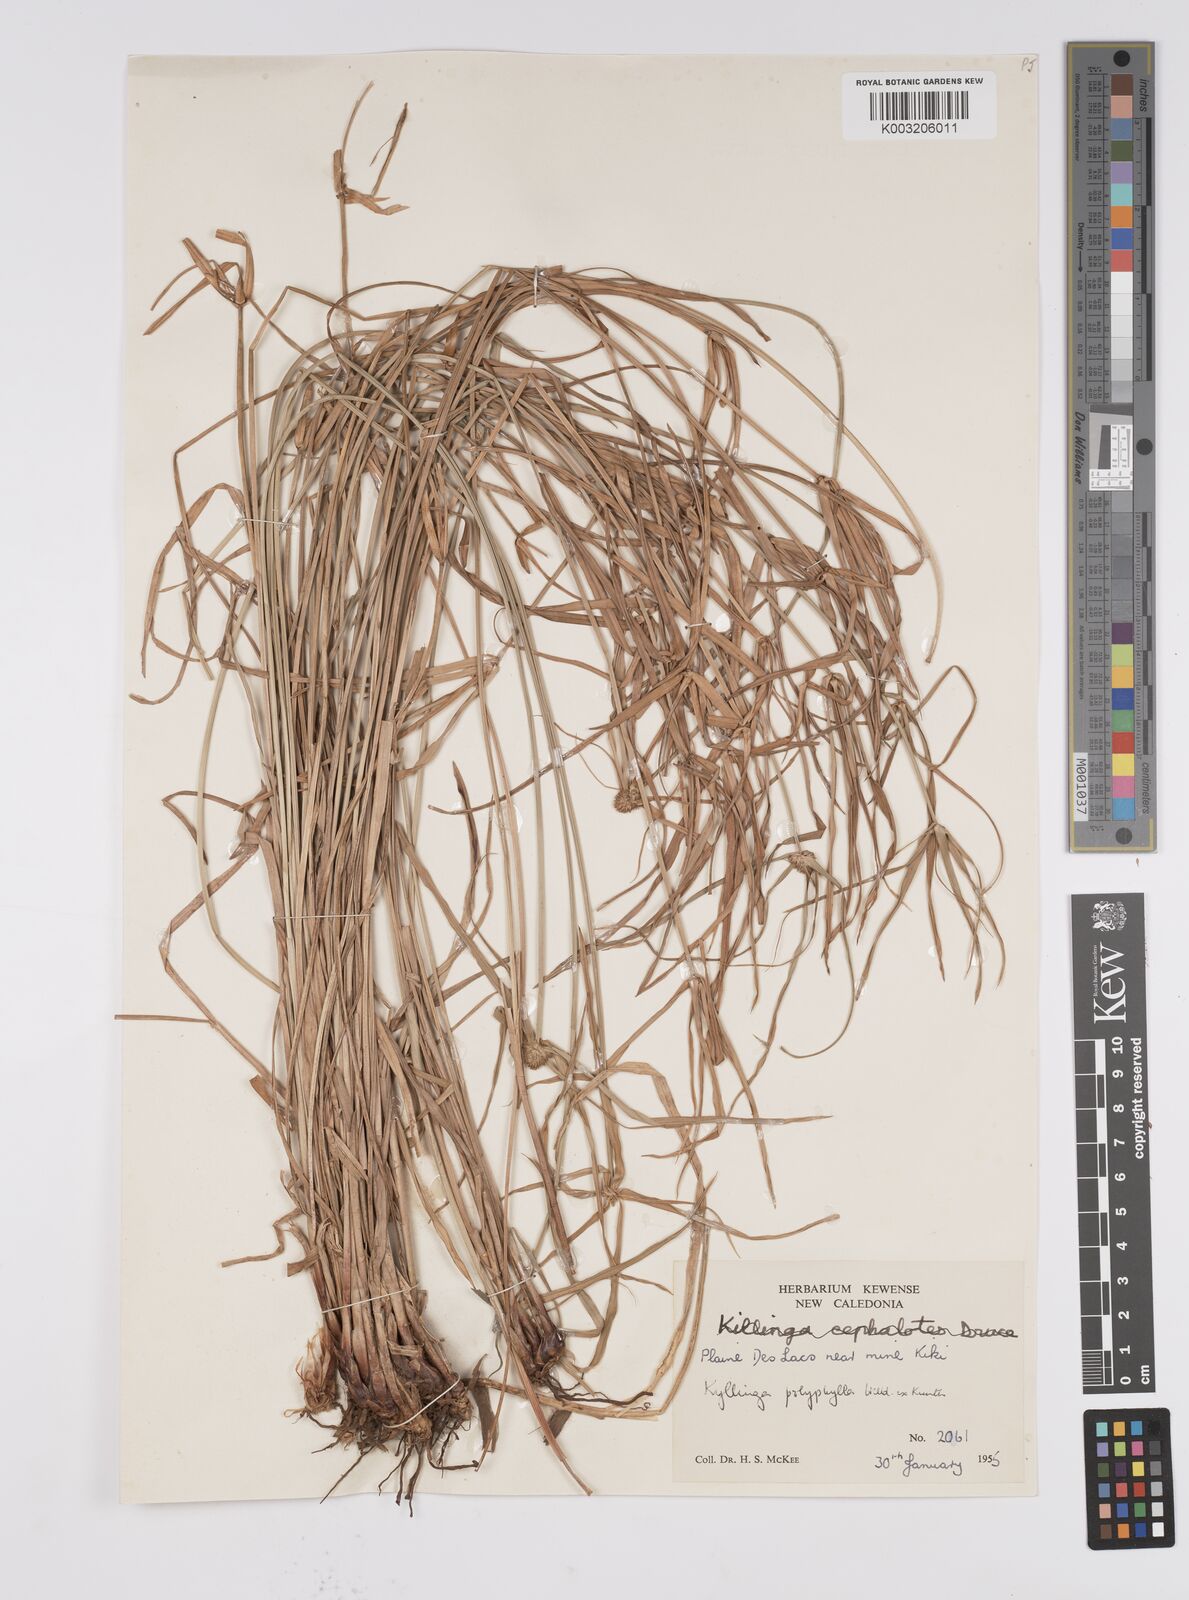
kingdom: Plantae
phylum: Tracheophyta
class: Liliopsida
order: Poales
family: Cyperaceae
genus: Cyperus
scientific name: Cyperus
